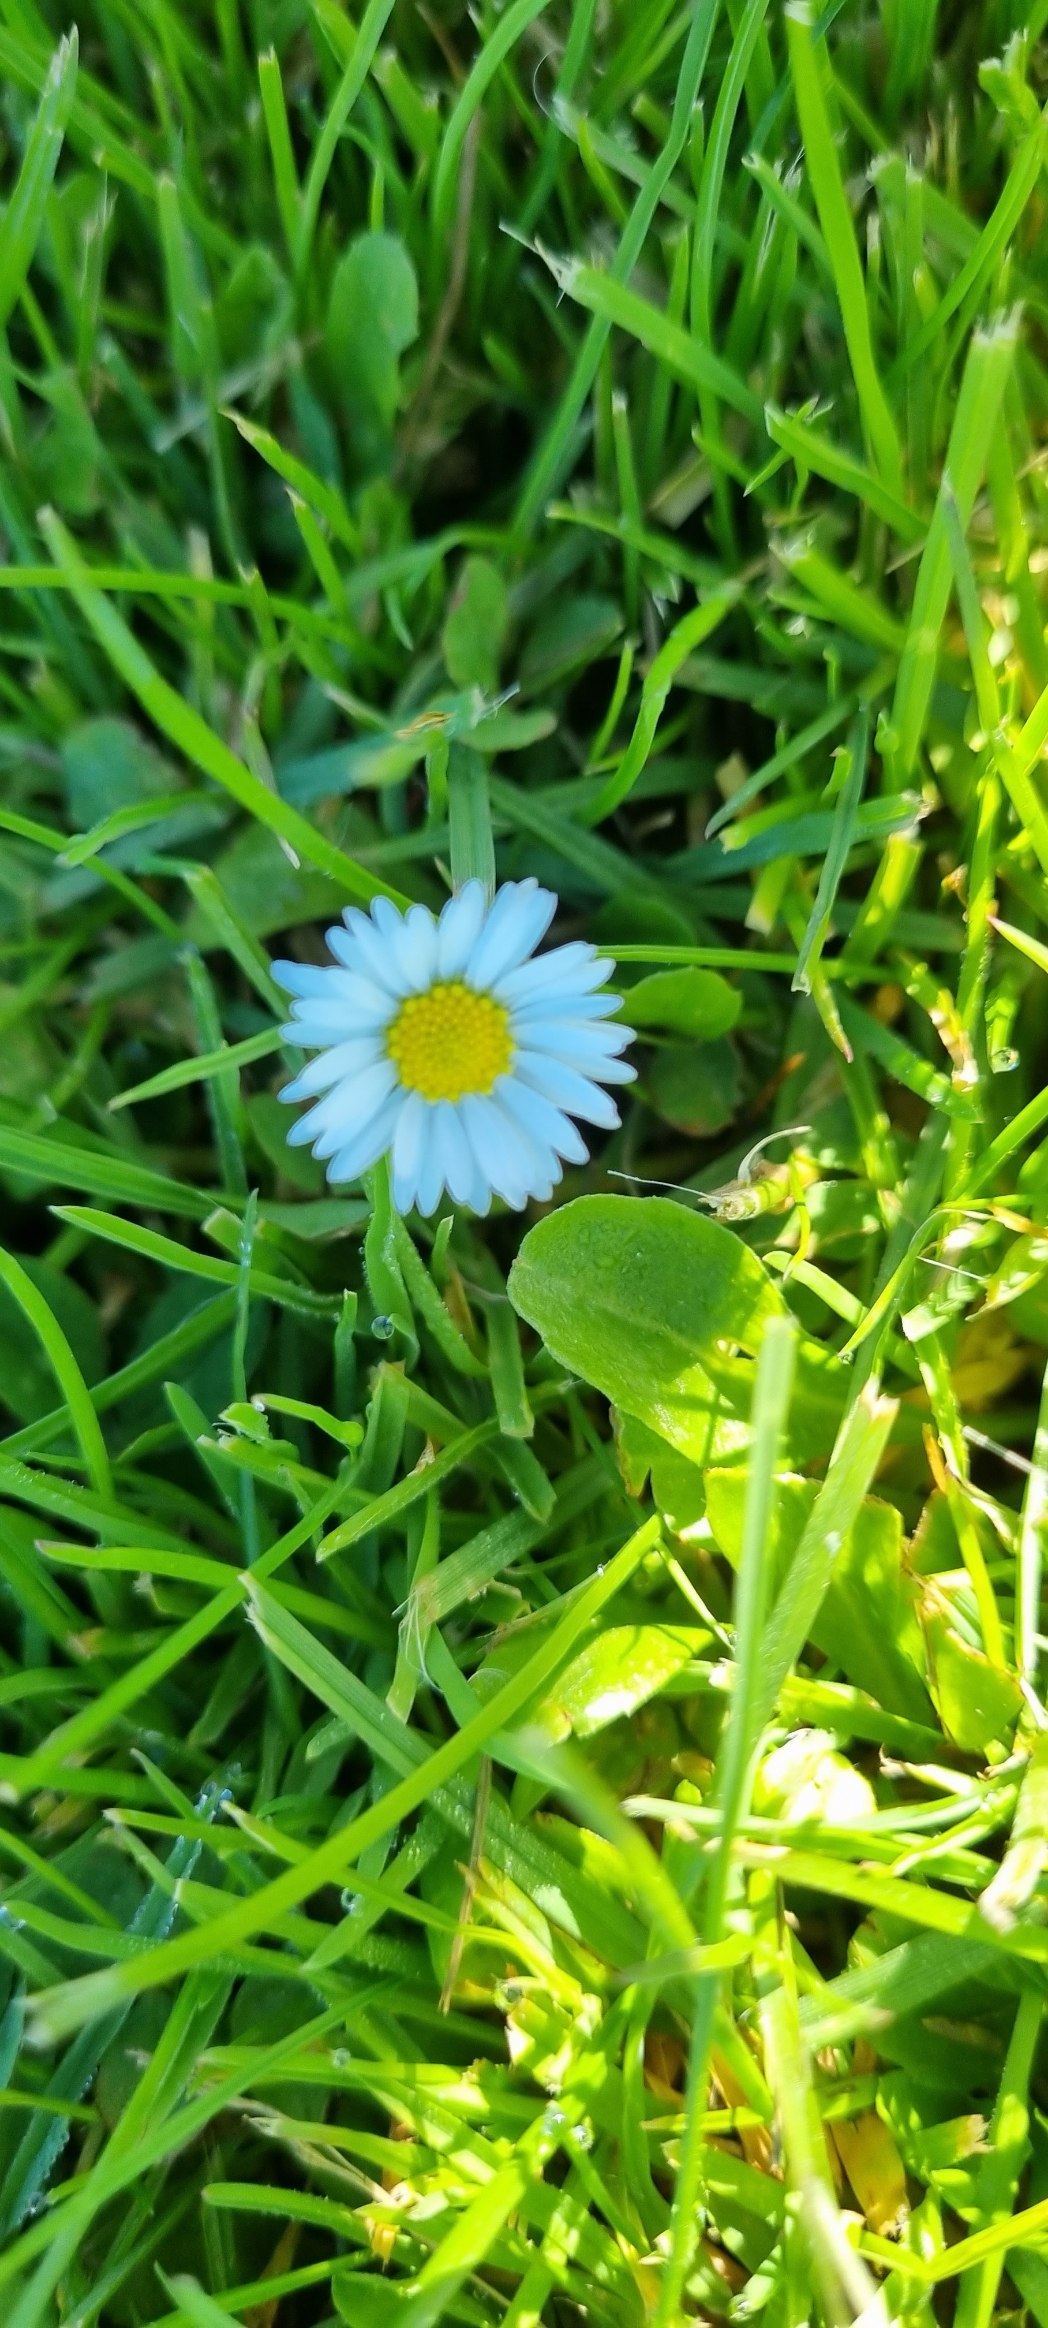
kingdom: Plantae
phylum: Tracheophyta
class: Magnoliopsida
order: Asterales
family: Asteraceae
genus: Bellis
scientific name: Bellis perennis
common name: Tusindfryd
